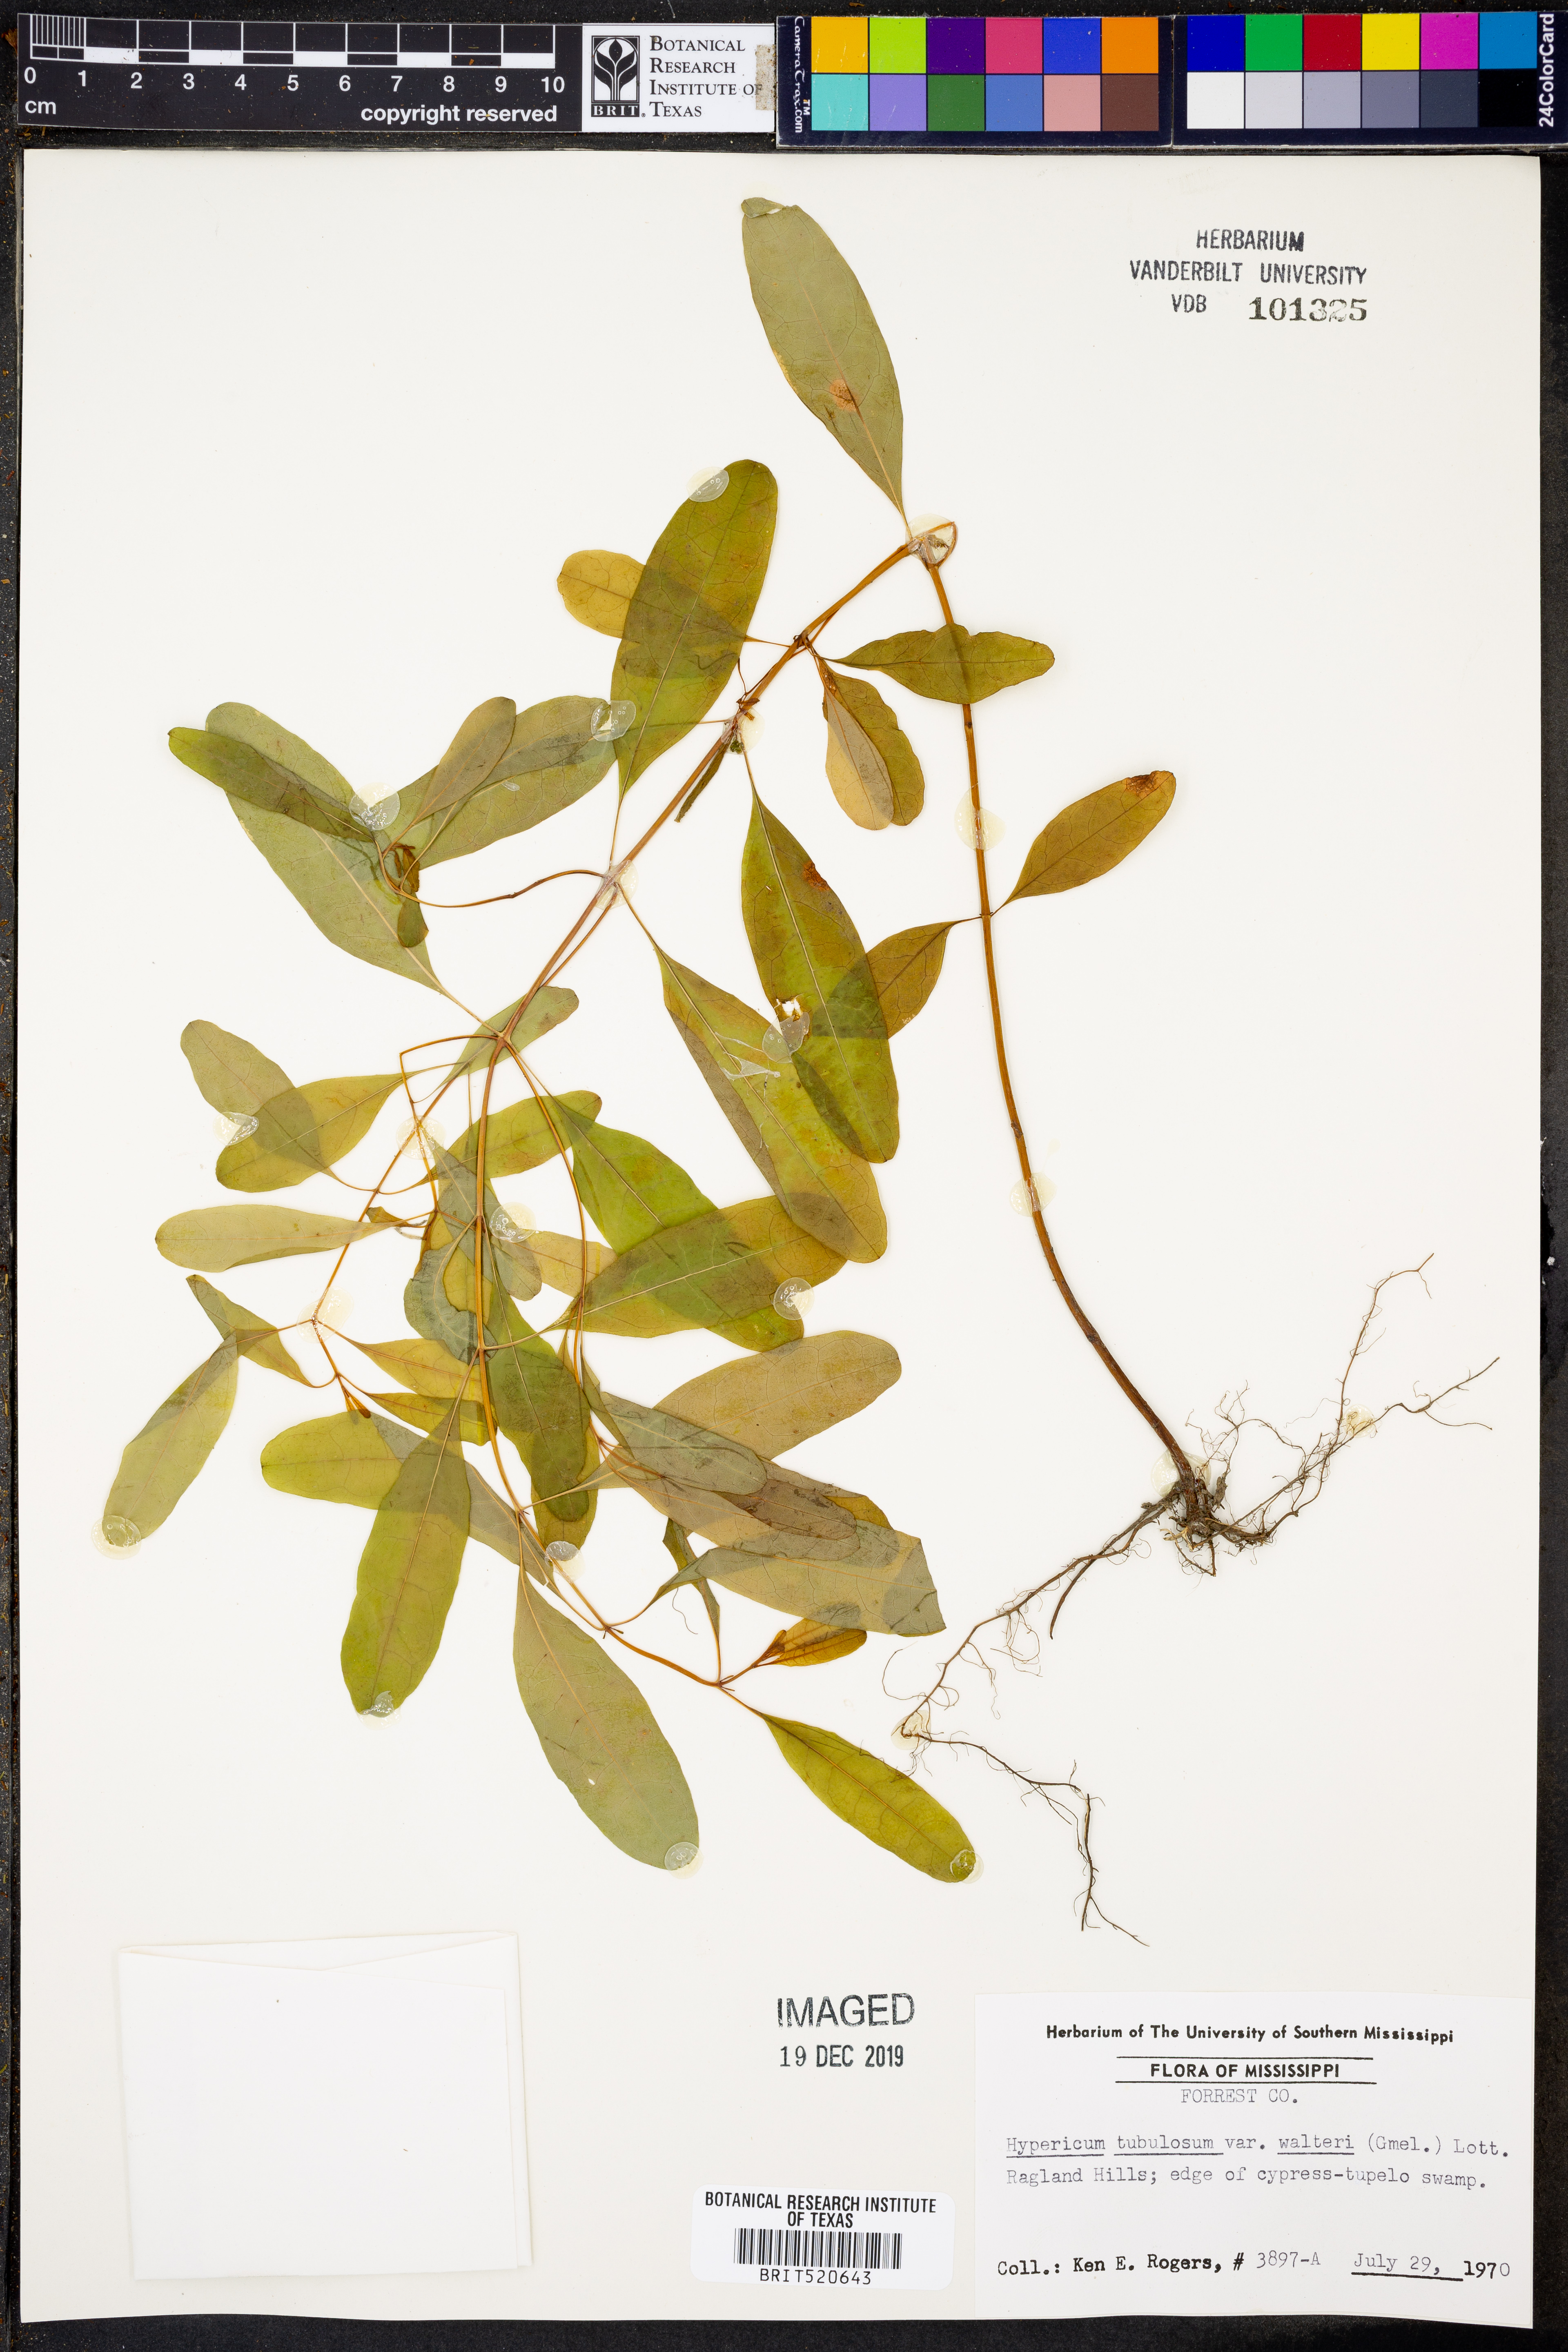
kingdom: Plantae
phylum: Tracheophyta
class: Magnoliopsida
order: Malpighiales
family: Hypericaceae
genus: Triadenum
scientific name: Triadenum walteri
